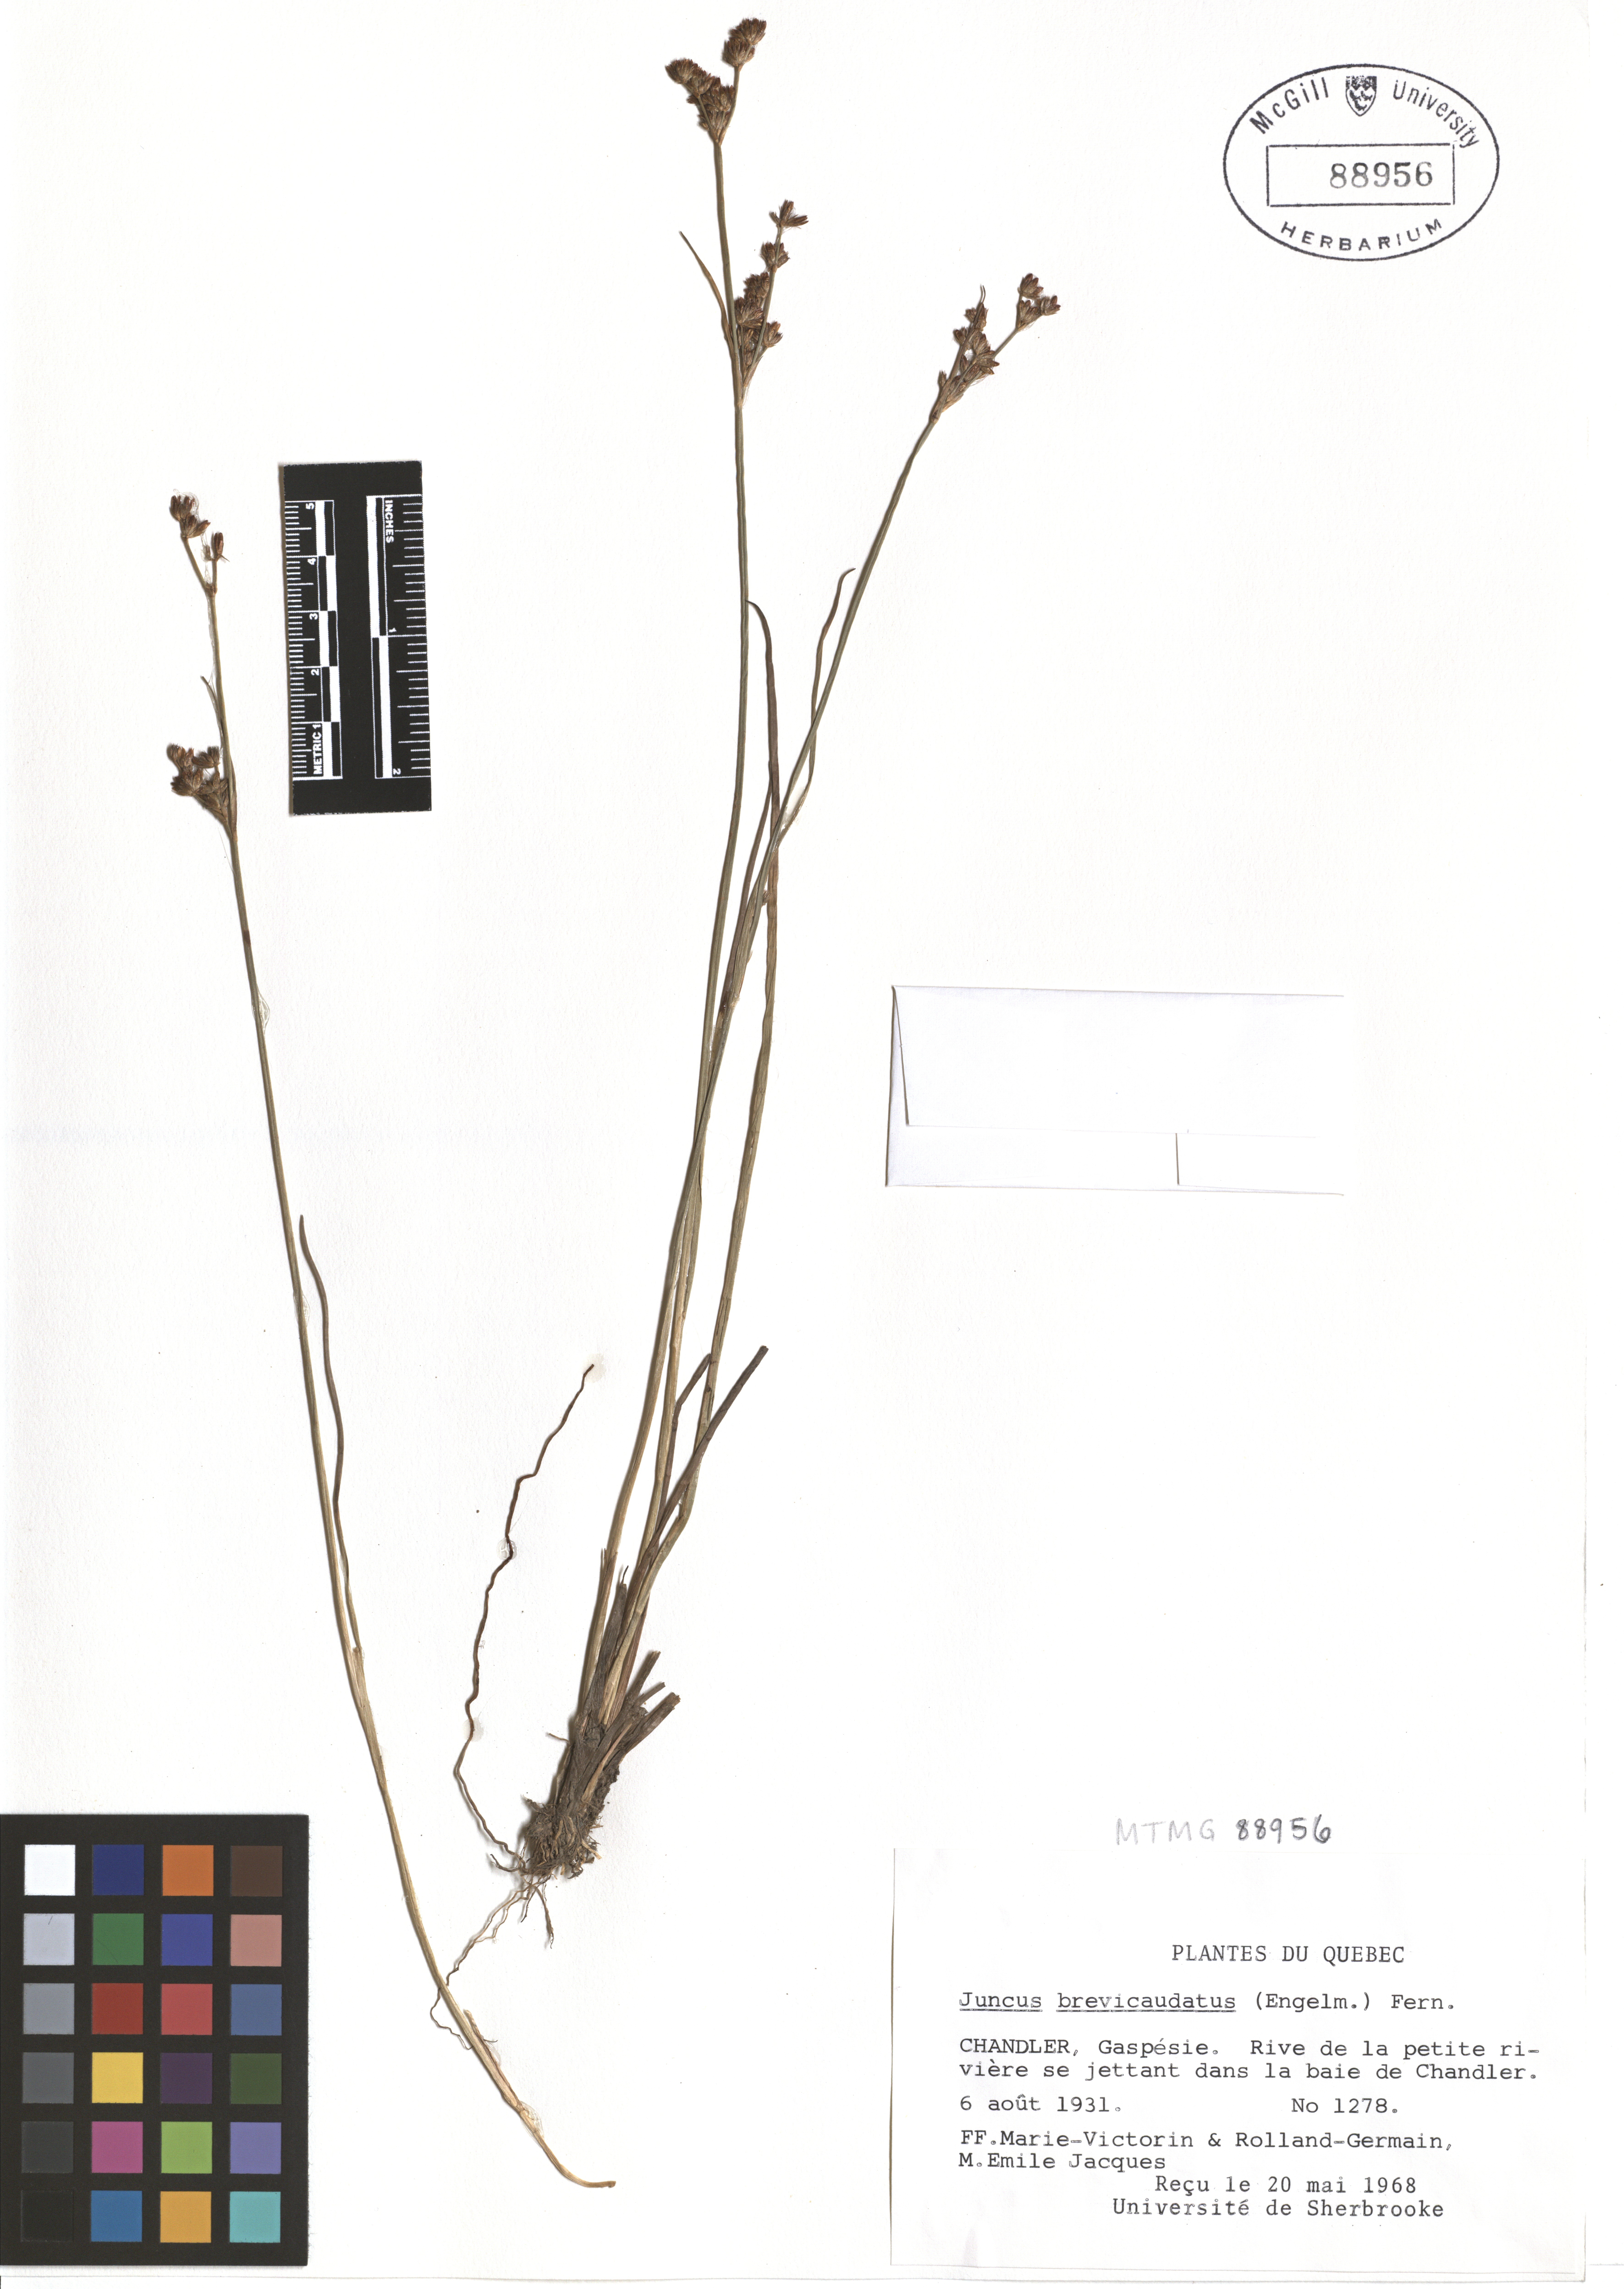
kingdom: Plantae
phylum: Tracheophyta
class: Liliopsida
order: Poales
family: Juncaceae
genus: Juncus
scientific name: Juncus brevicaudatus
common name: Narrow-panicle rush
